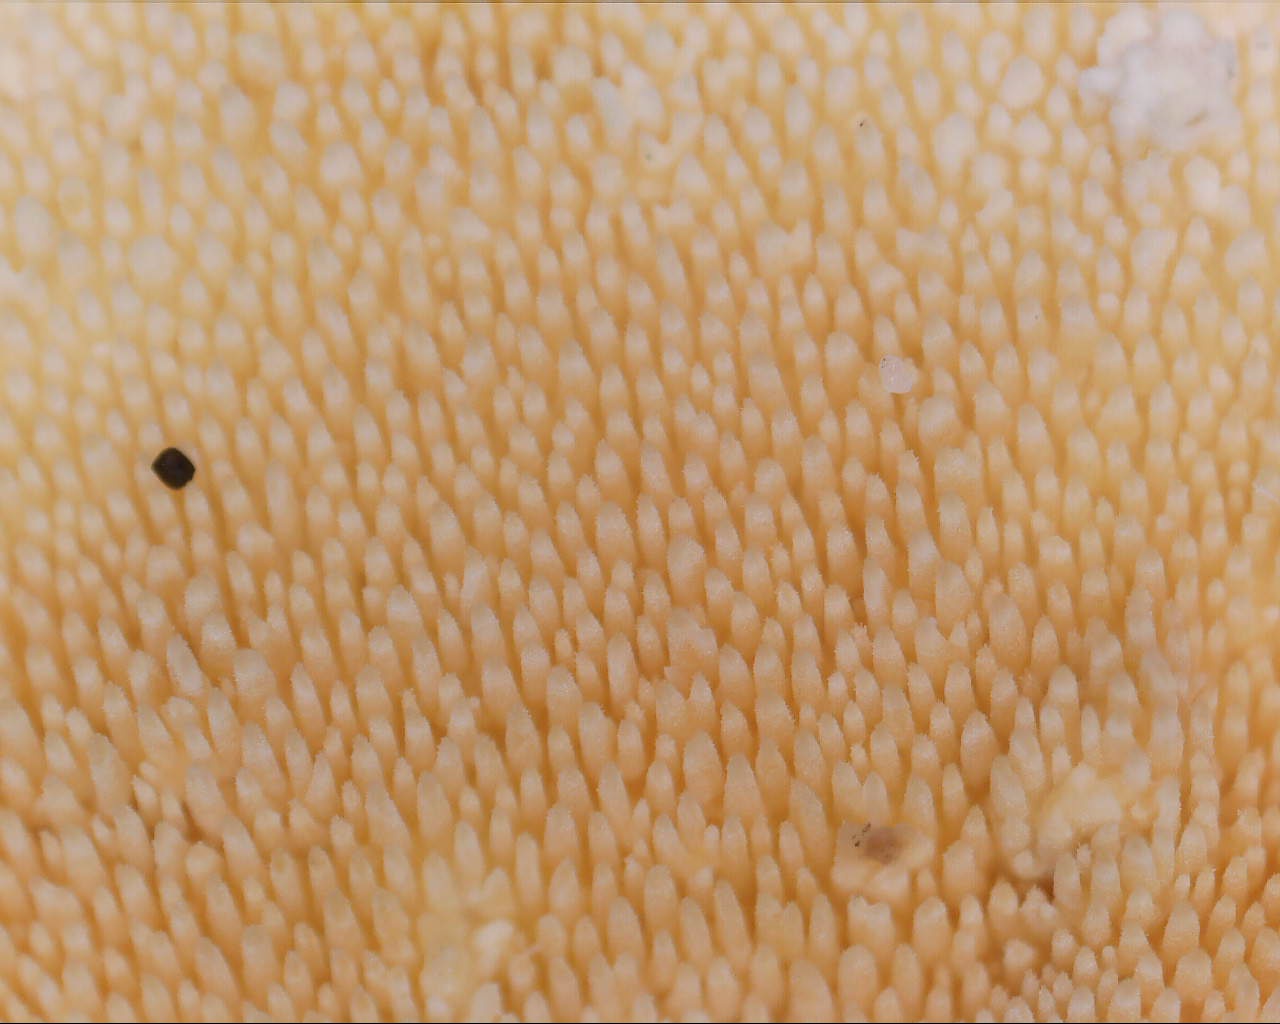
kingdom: Fungi
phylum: Basidiomycota
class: Agaricomycetes
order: Polyporales
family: Steccherinaceae
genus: Steccherinum
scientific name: Steccherinum ochraceum
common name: almindelig skønpig
